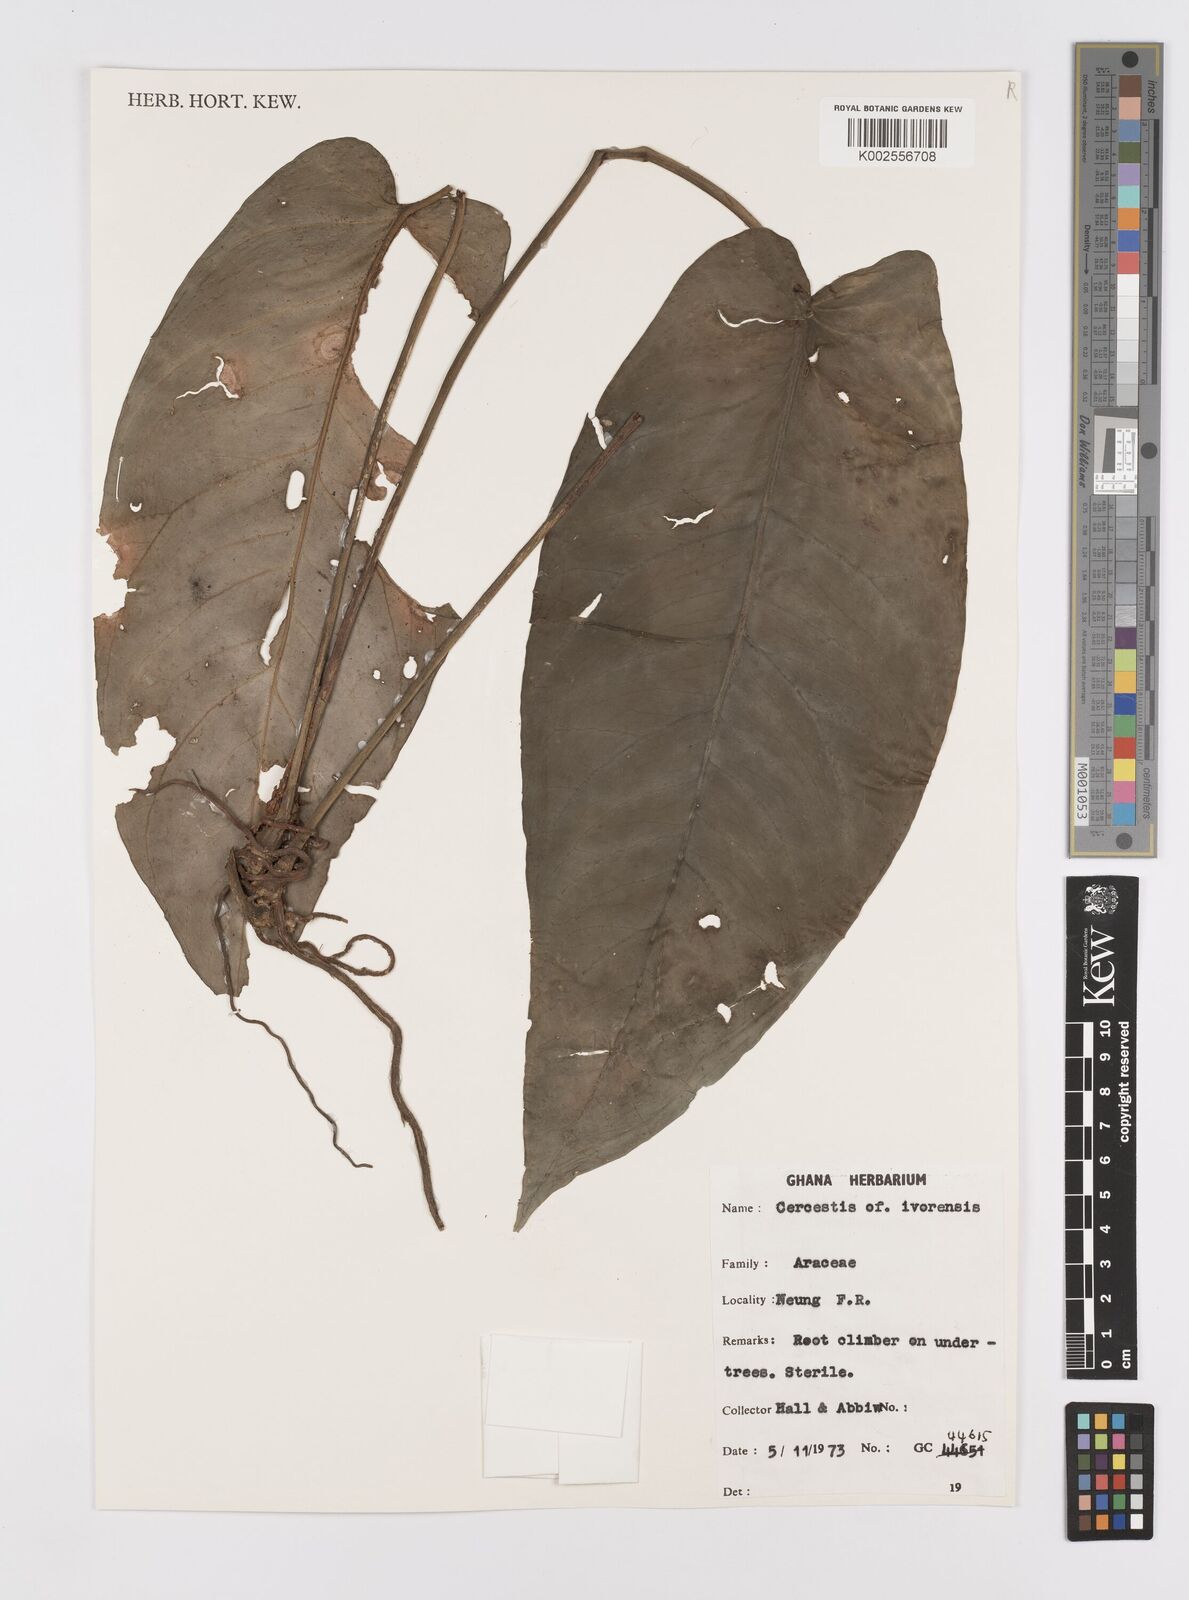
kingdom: Plantae
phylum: Tracheophyta
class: Liliopsida
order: Alismatales
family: Araceae
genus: Cercestis
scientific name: Cercestis hepperi
